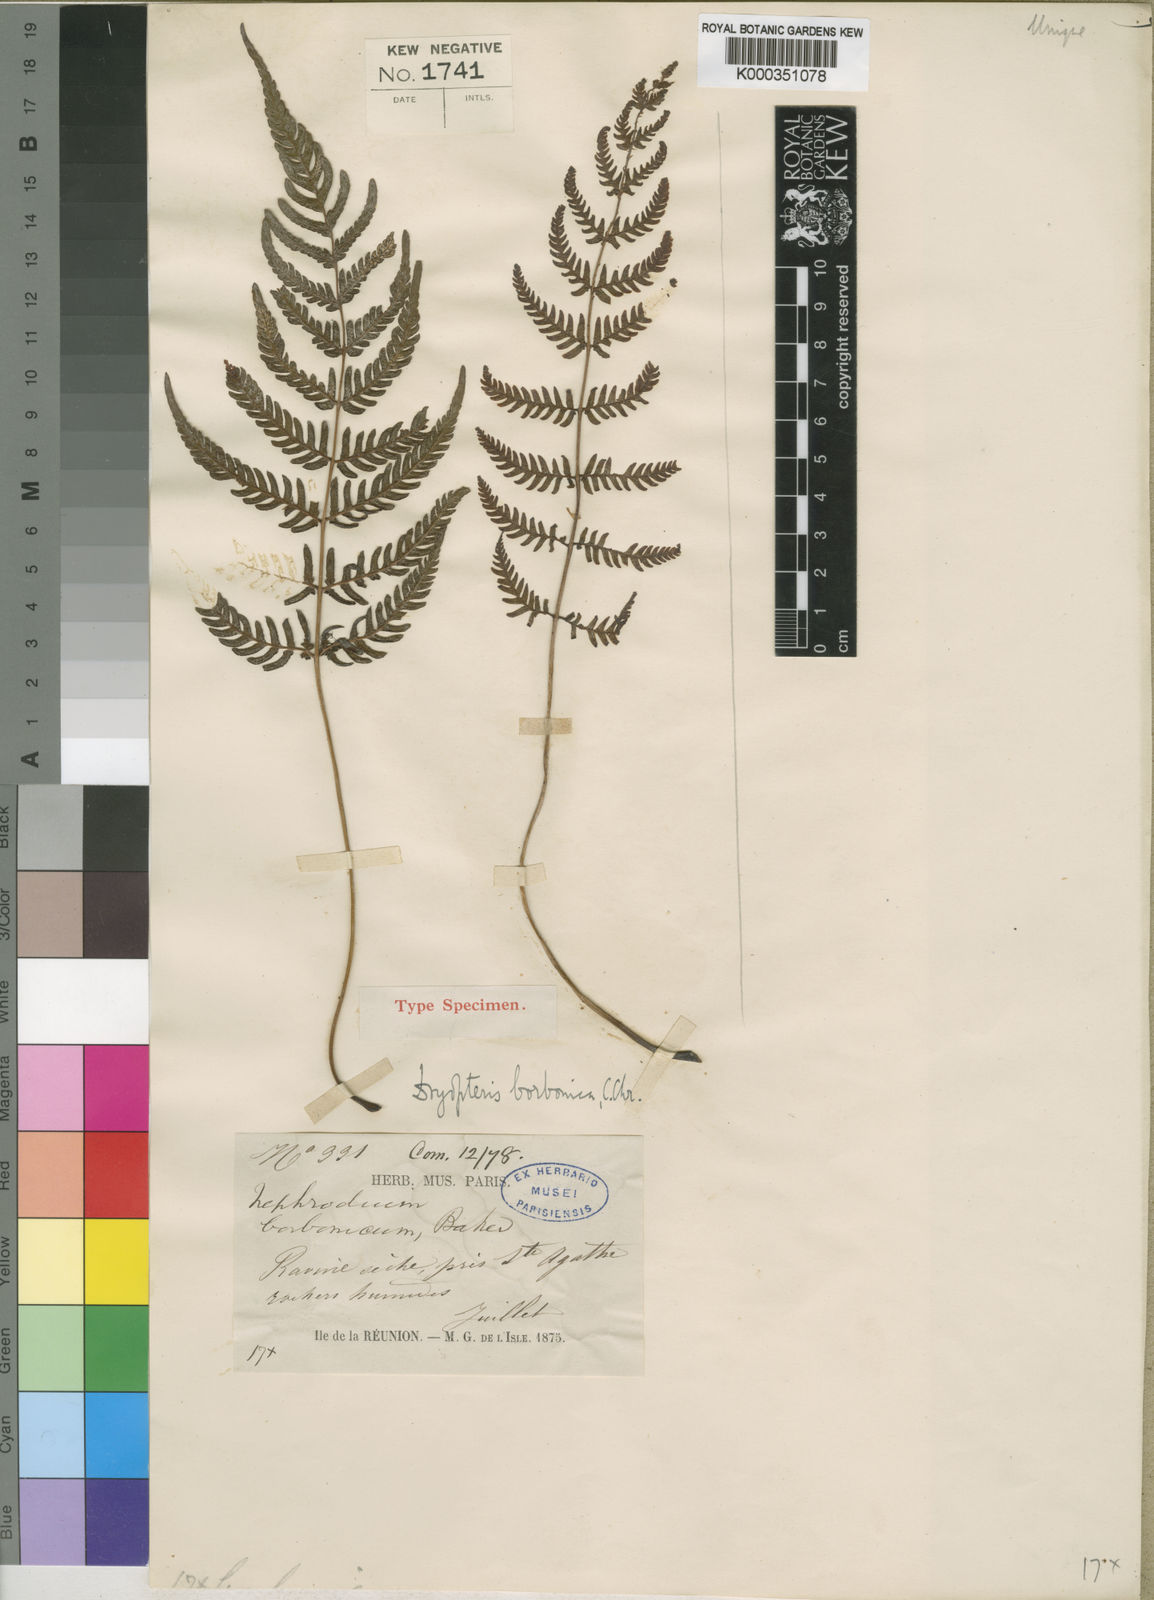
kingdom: Plantae
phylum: Tracheophyta
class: Polypodiopsida
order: Polypodiales
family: Dryopteridaceae
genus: Ctenitis
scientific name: Ctenitis borbonica
